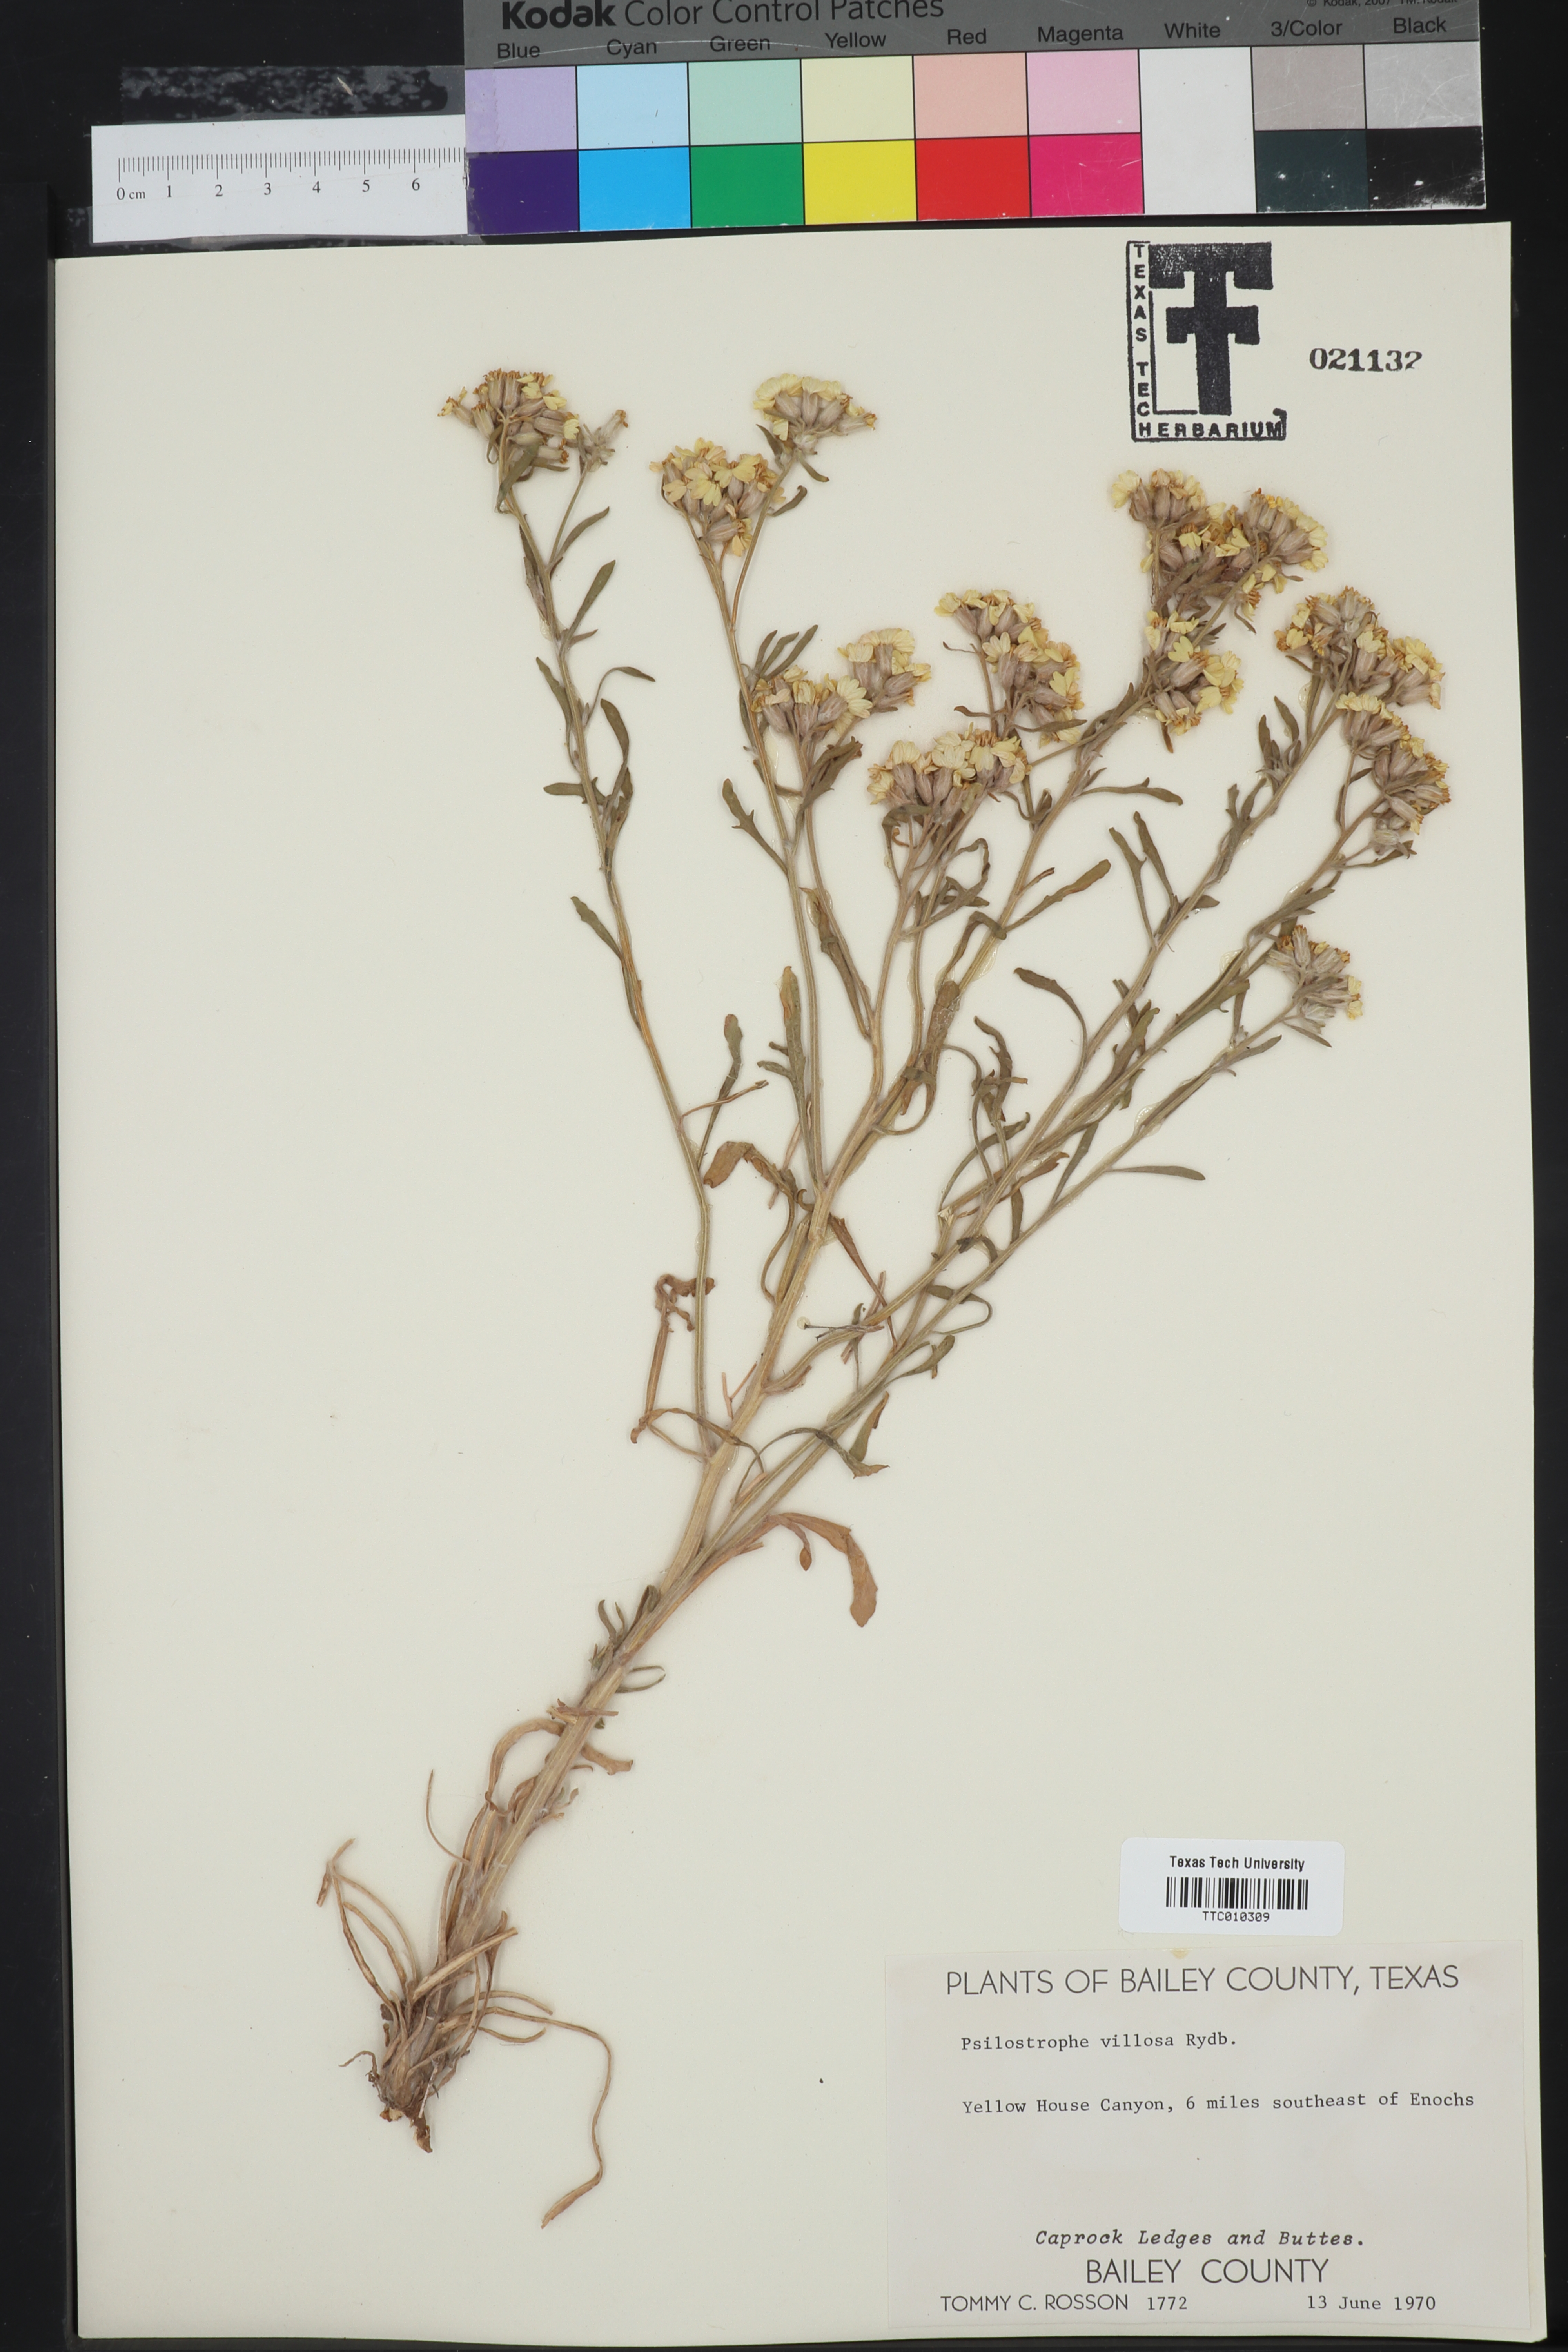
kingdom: Plantae
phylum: Tracheophyta
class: Magnoliopsida
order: Asterales
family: Asteraceae
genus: Psilostrophe
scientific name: Psilostrophe villosa
